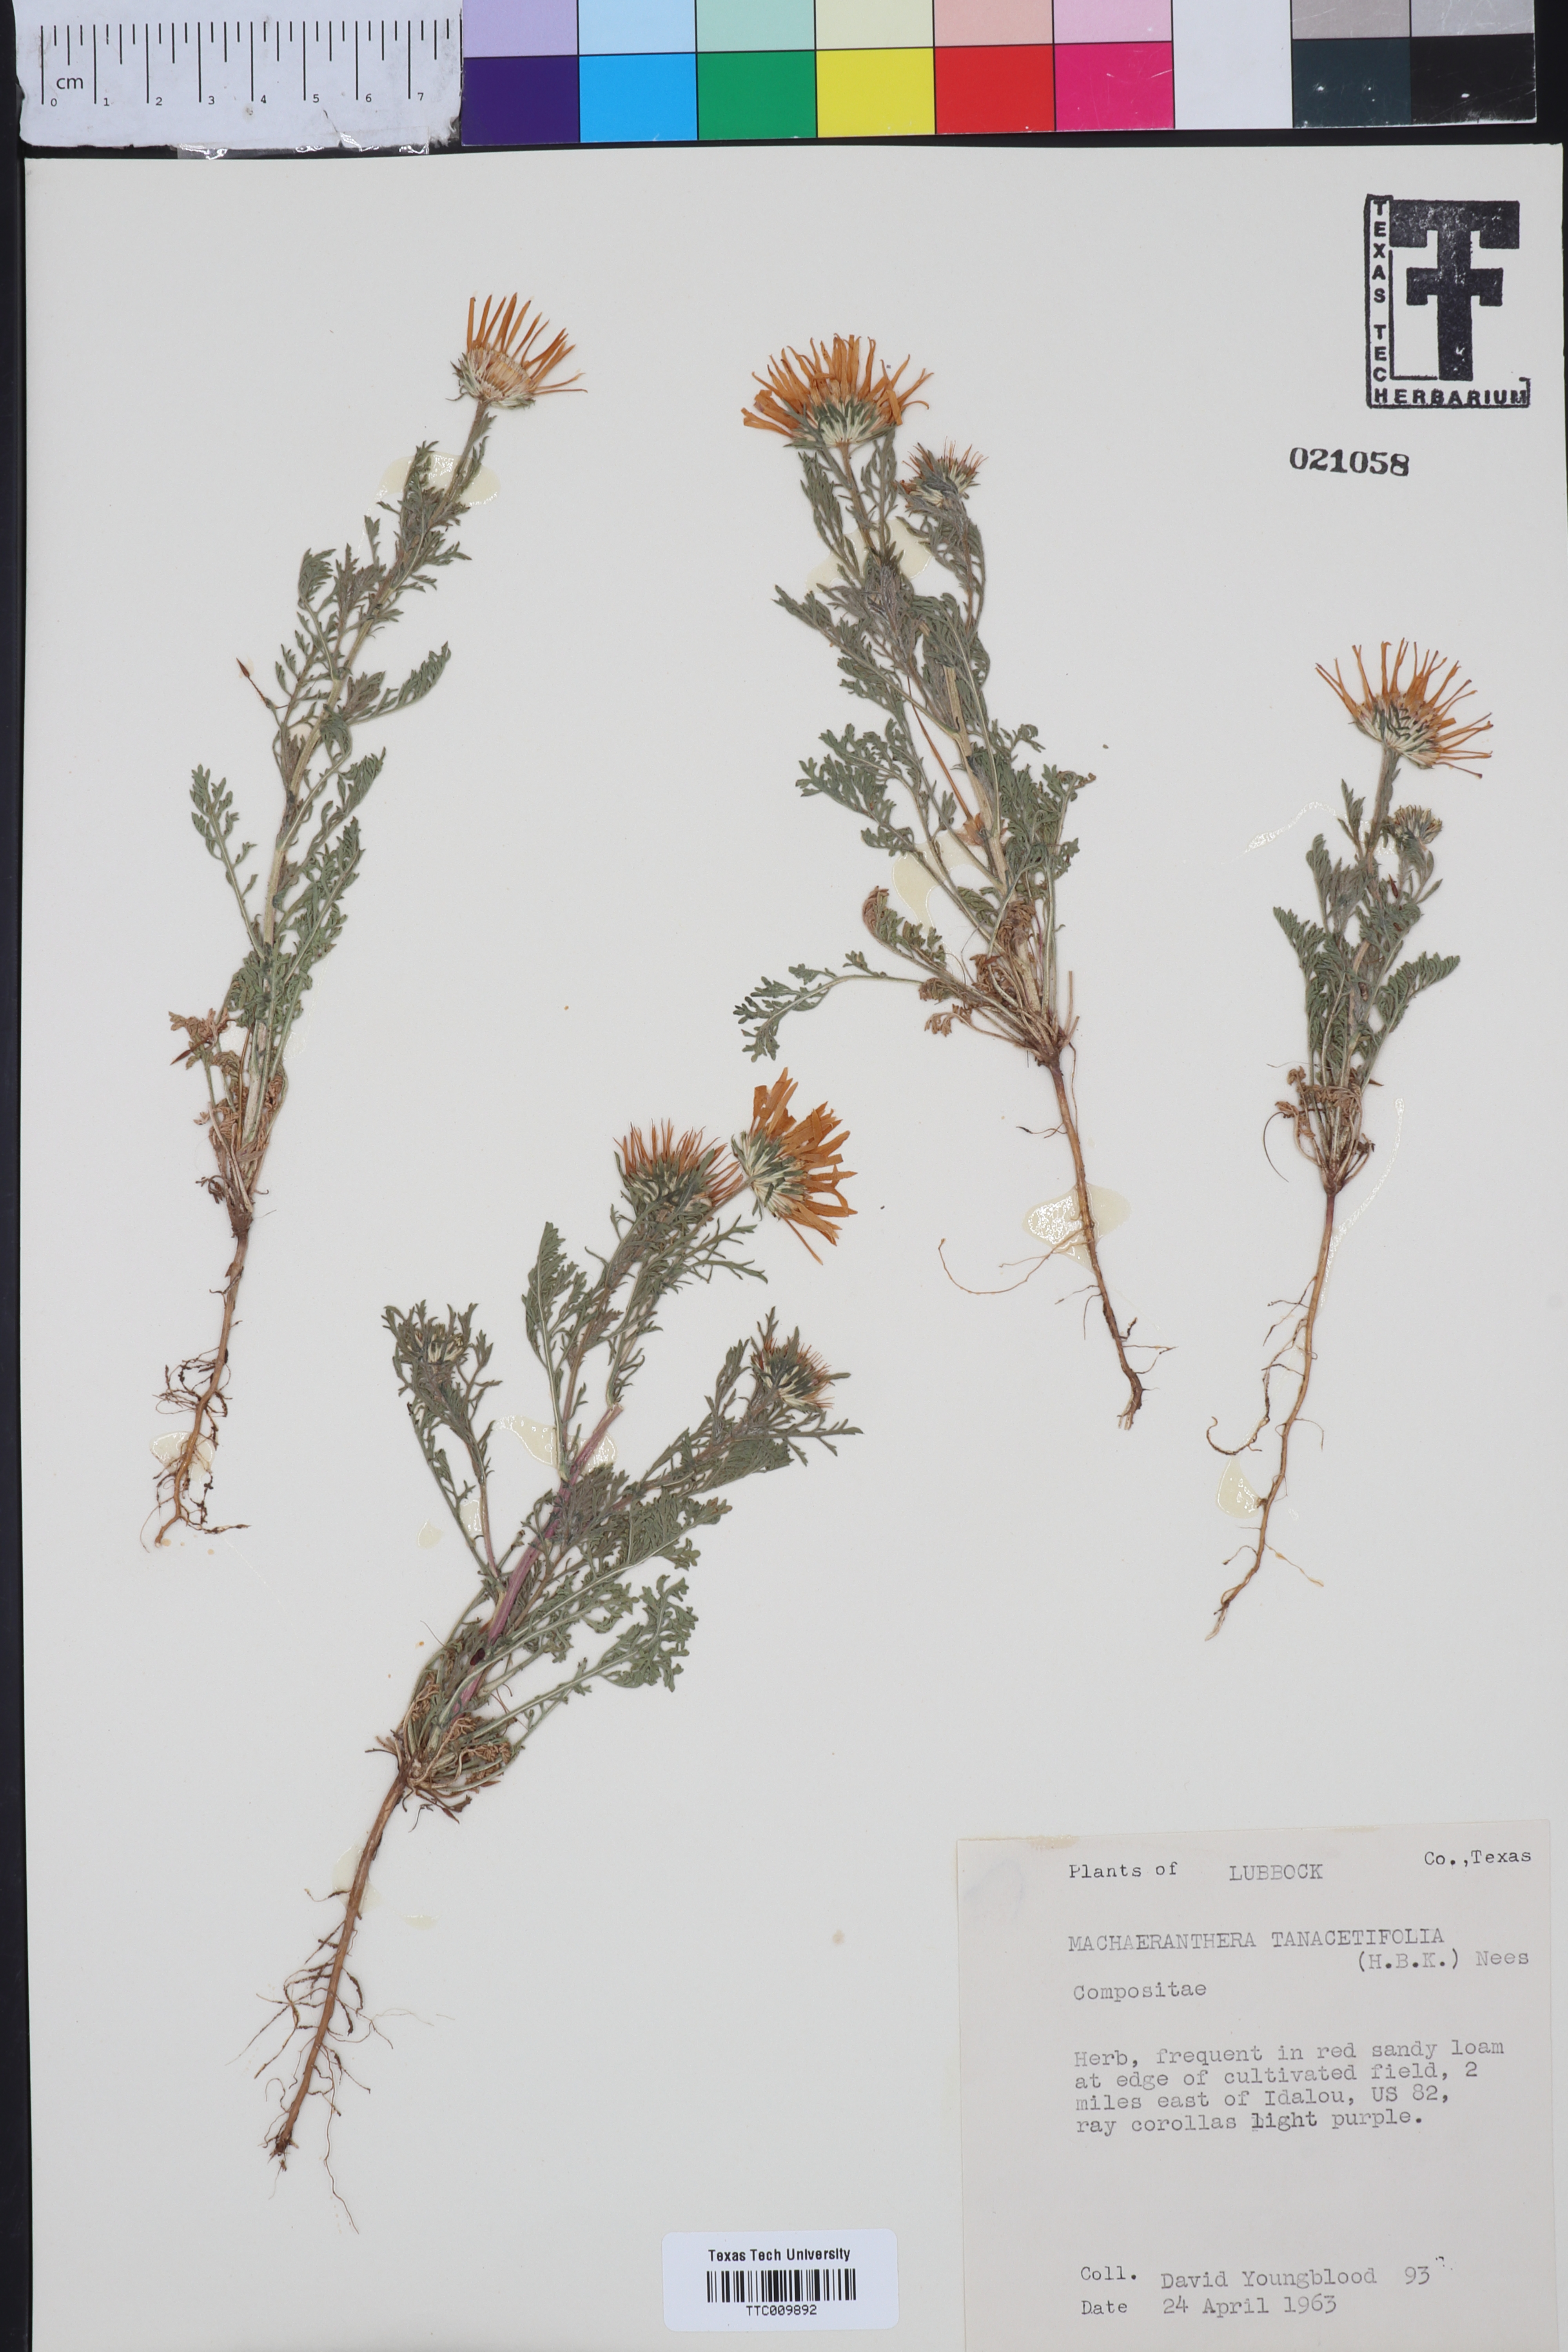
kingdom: Plantae
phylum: Tracheophyta
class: Magnoliopsida
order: Asterales
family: Asteraceae
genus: Machaeranthera
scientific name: Machaeranthera tanacetifolia
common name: Tansy-aster
